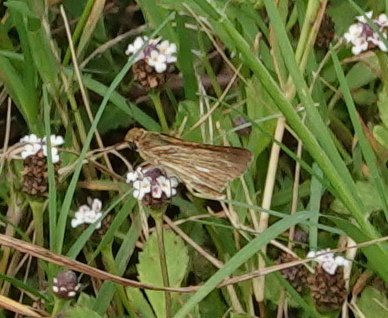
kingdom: Animalia
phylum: Arthropoda
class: Insecta
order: Lepidoptera
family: Hesperiidae
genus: Panoquina
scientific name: Panoquina panoquin
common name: Salt Marsh Skipper
